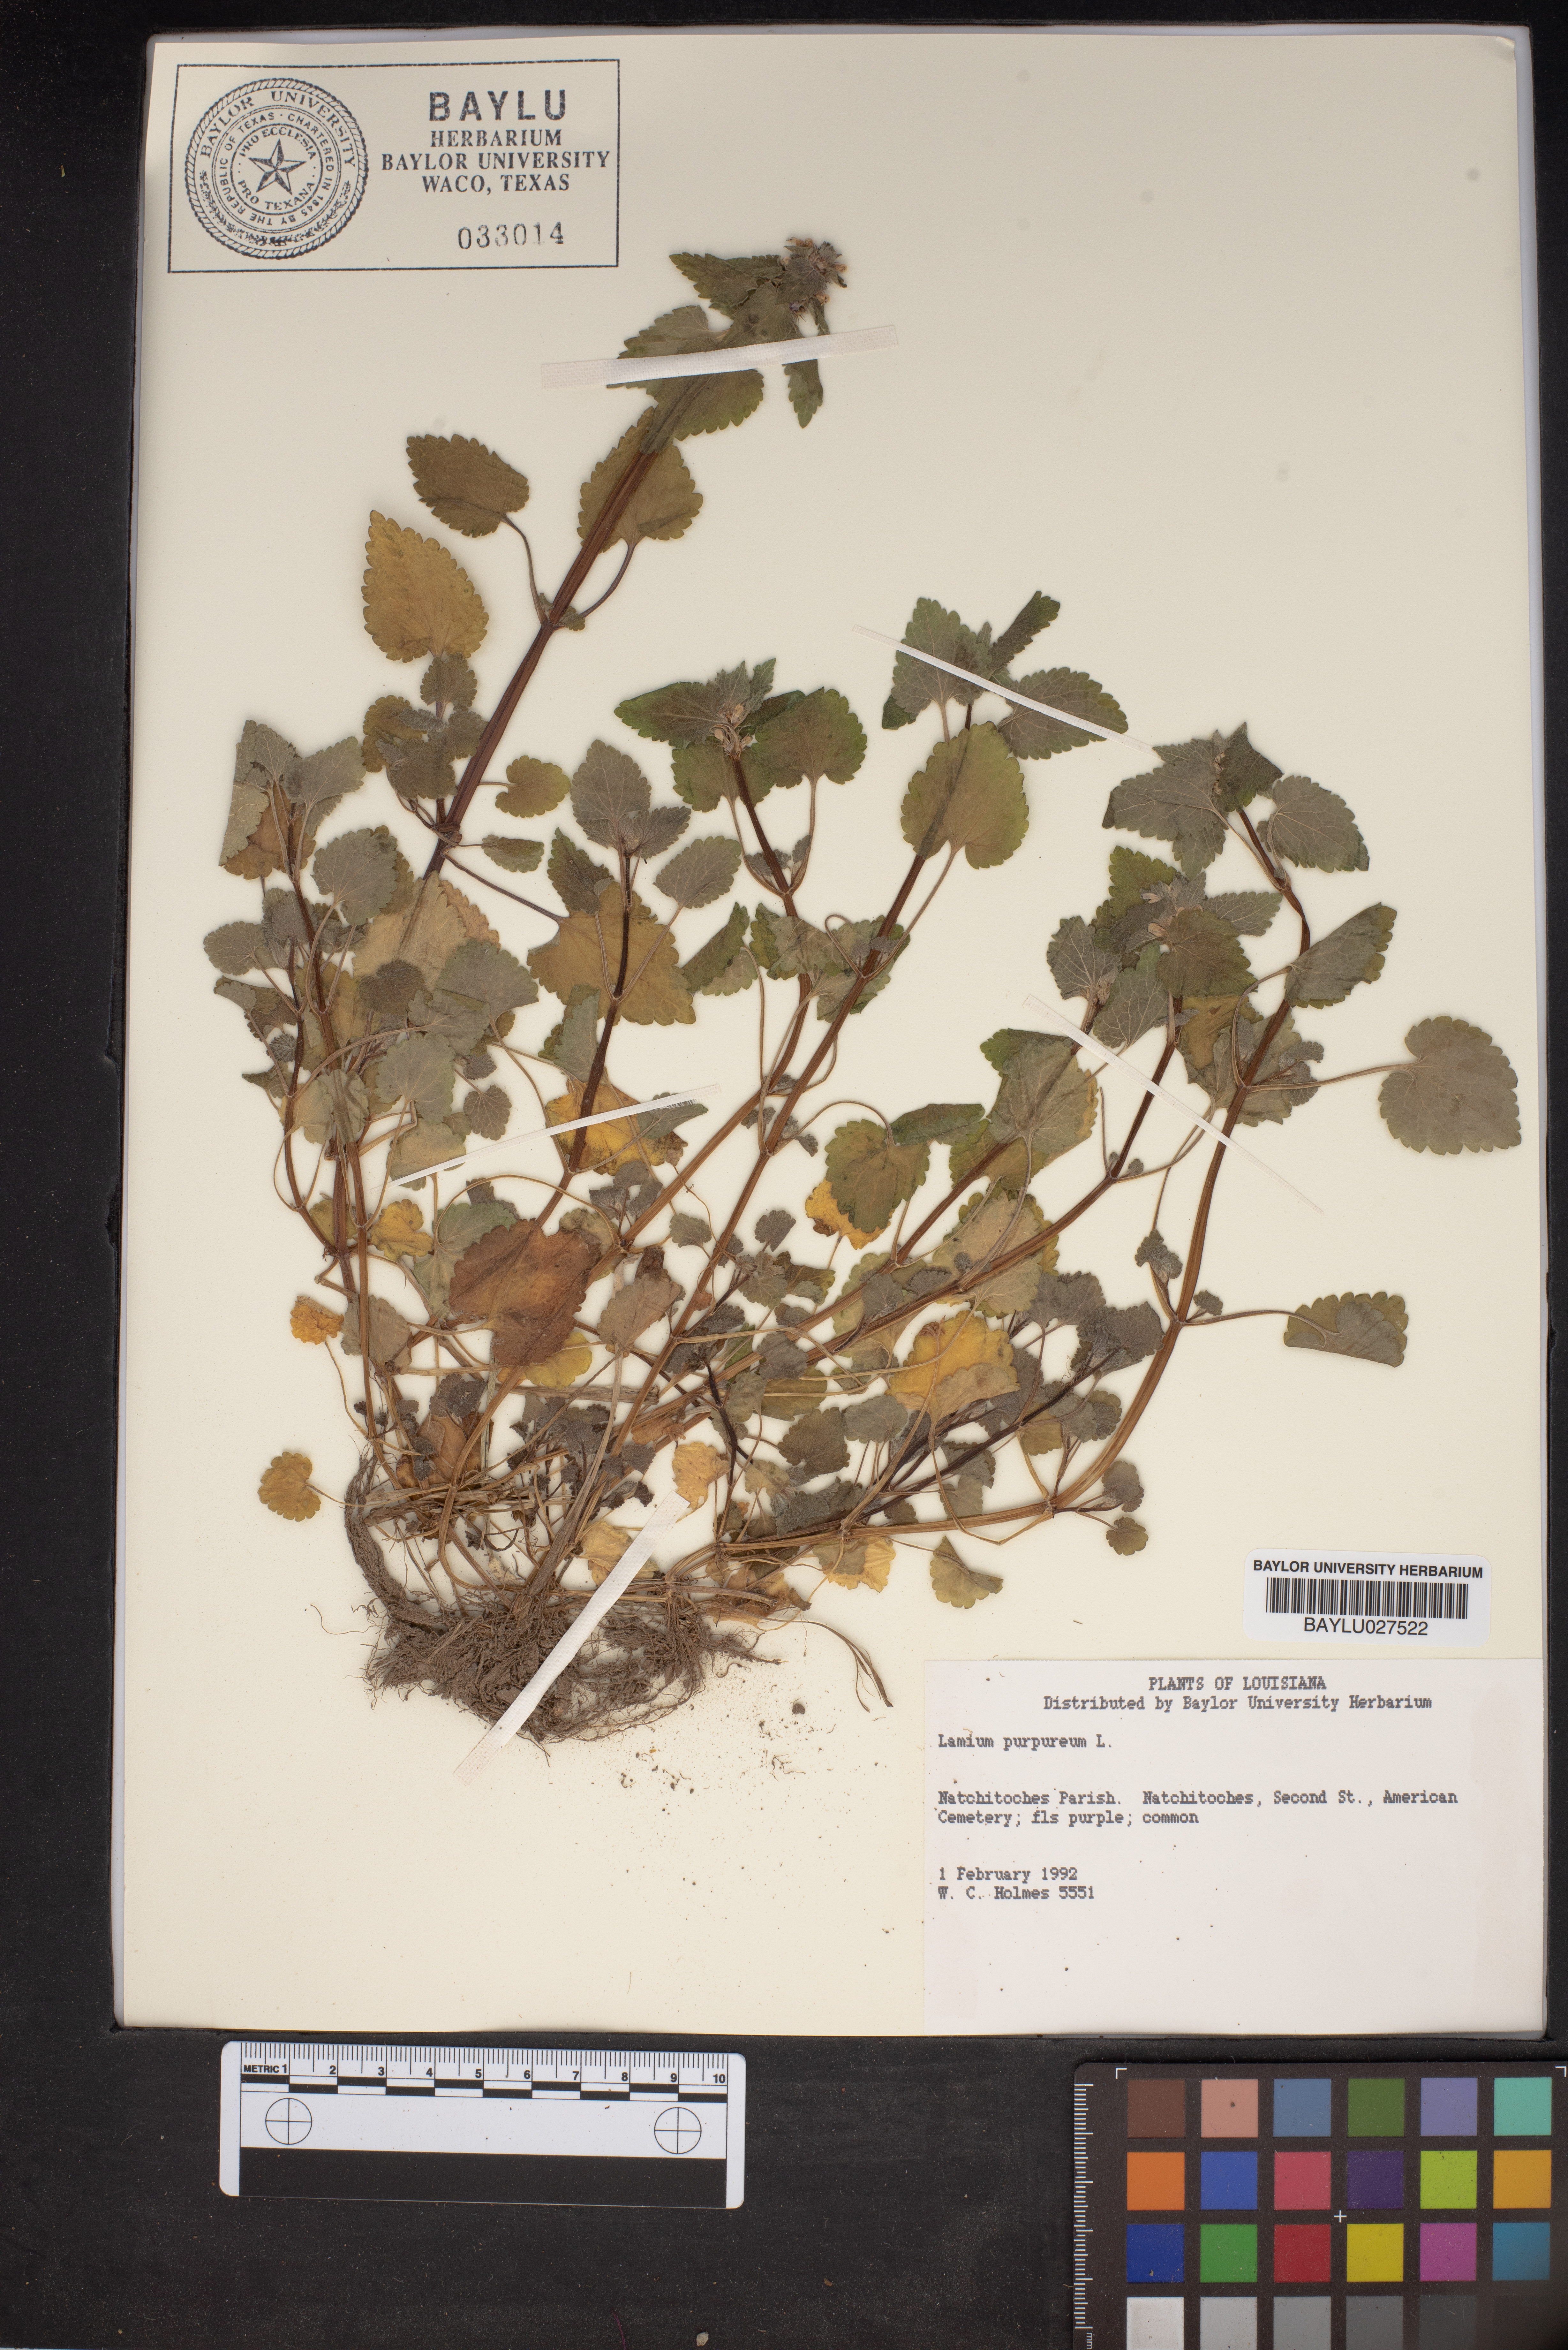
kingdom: Plantae
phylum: Tracheophyta
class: Magnoliopsida
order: Lamiales
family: Lamiaceae
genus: Lamium
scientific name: Lamium purpureum
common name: Red dead-nettle
